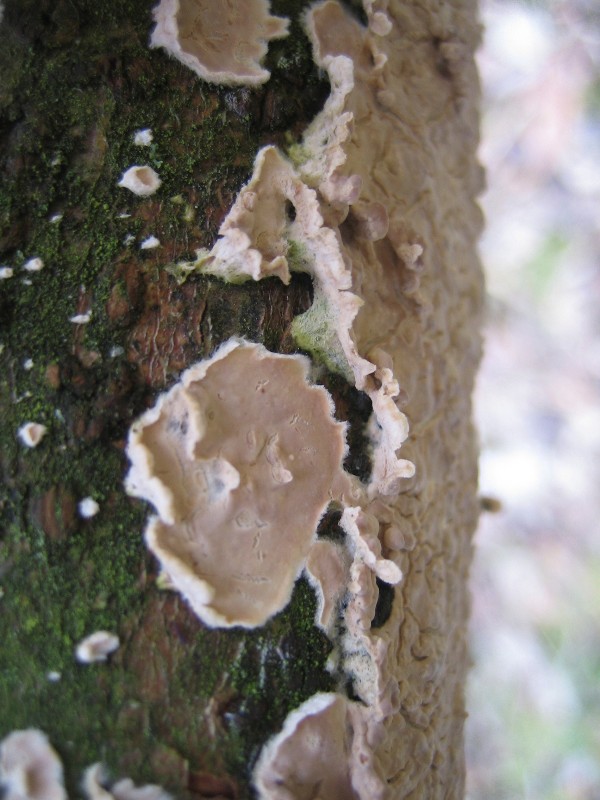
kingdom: Fungi
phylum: Basidiomycota
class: Agaricomycetes
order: Agaricales
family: Physalacriaceae
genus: Cylindrobasidium
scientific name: Cylindrobasidium evolvens
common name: sprækkehinde
